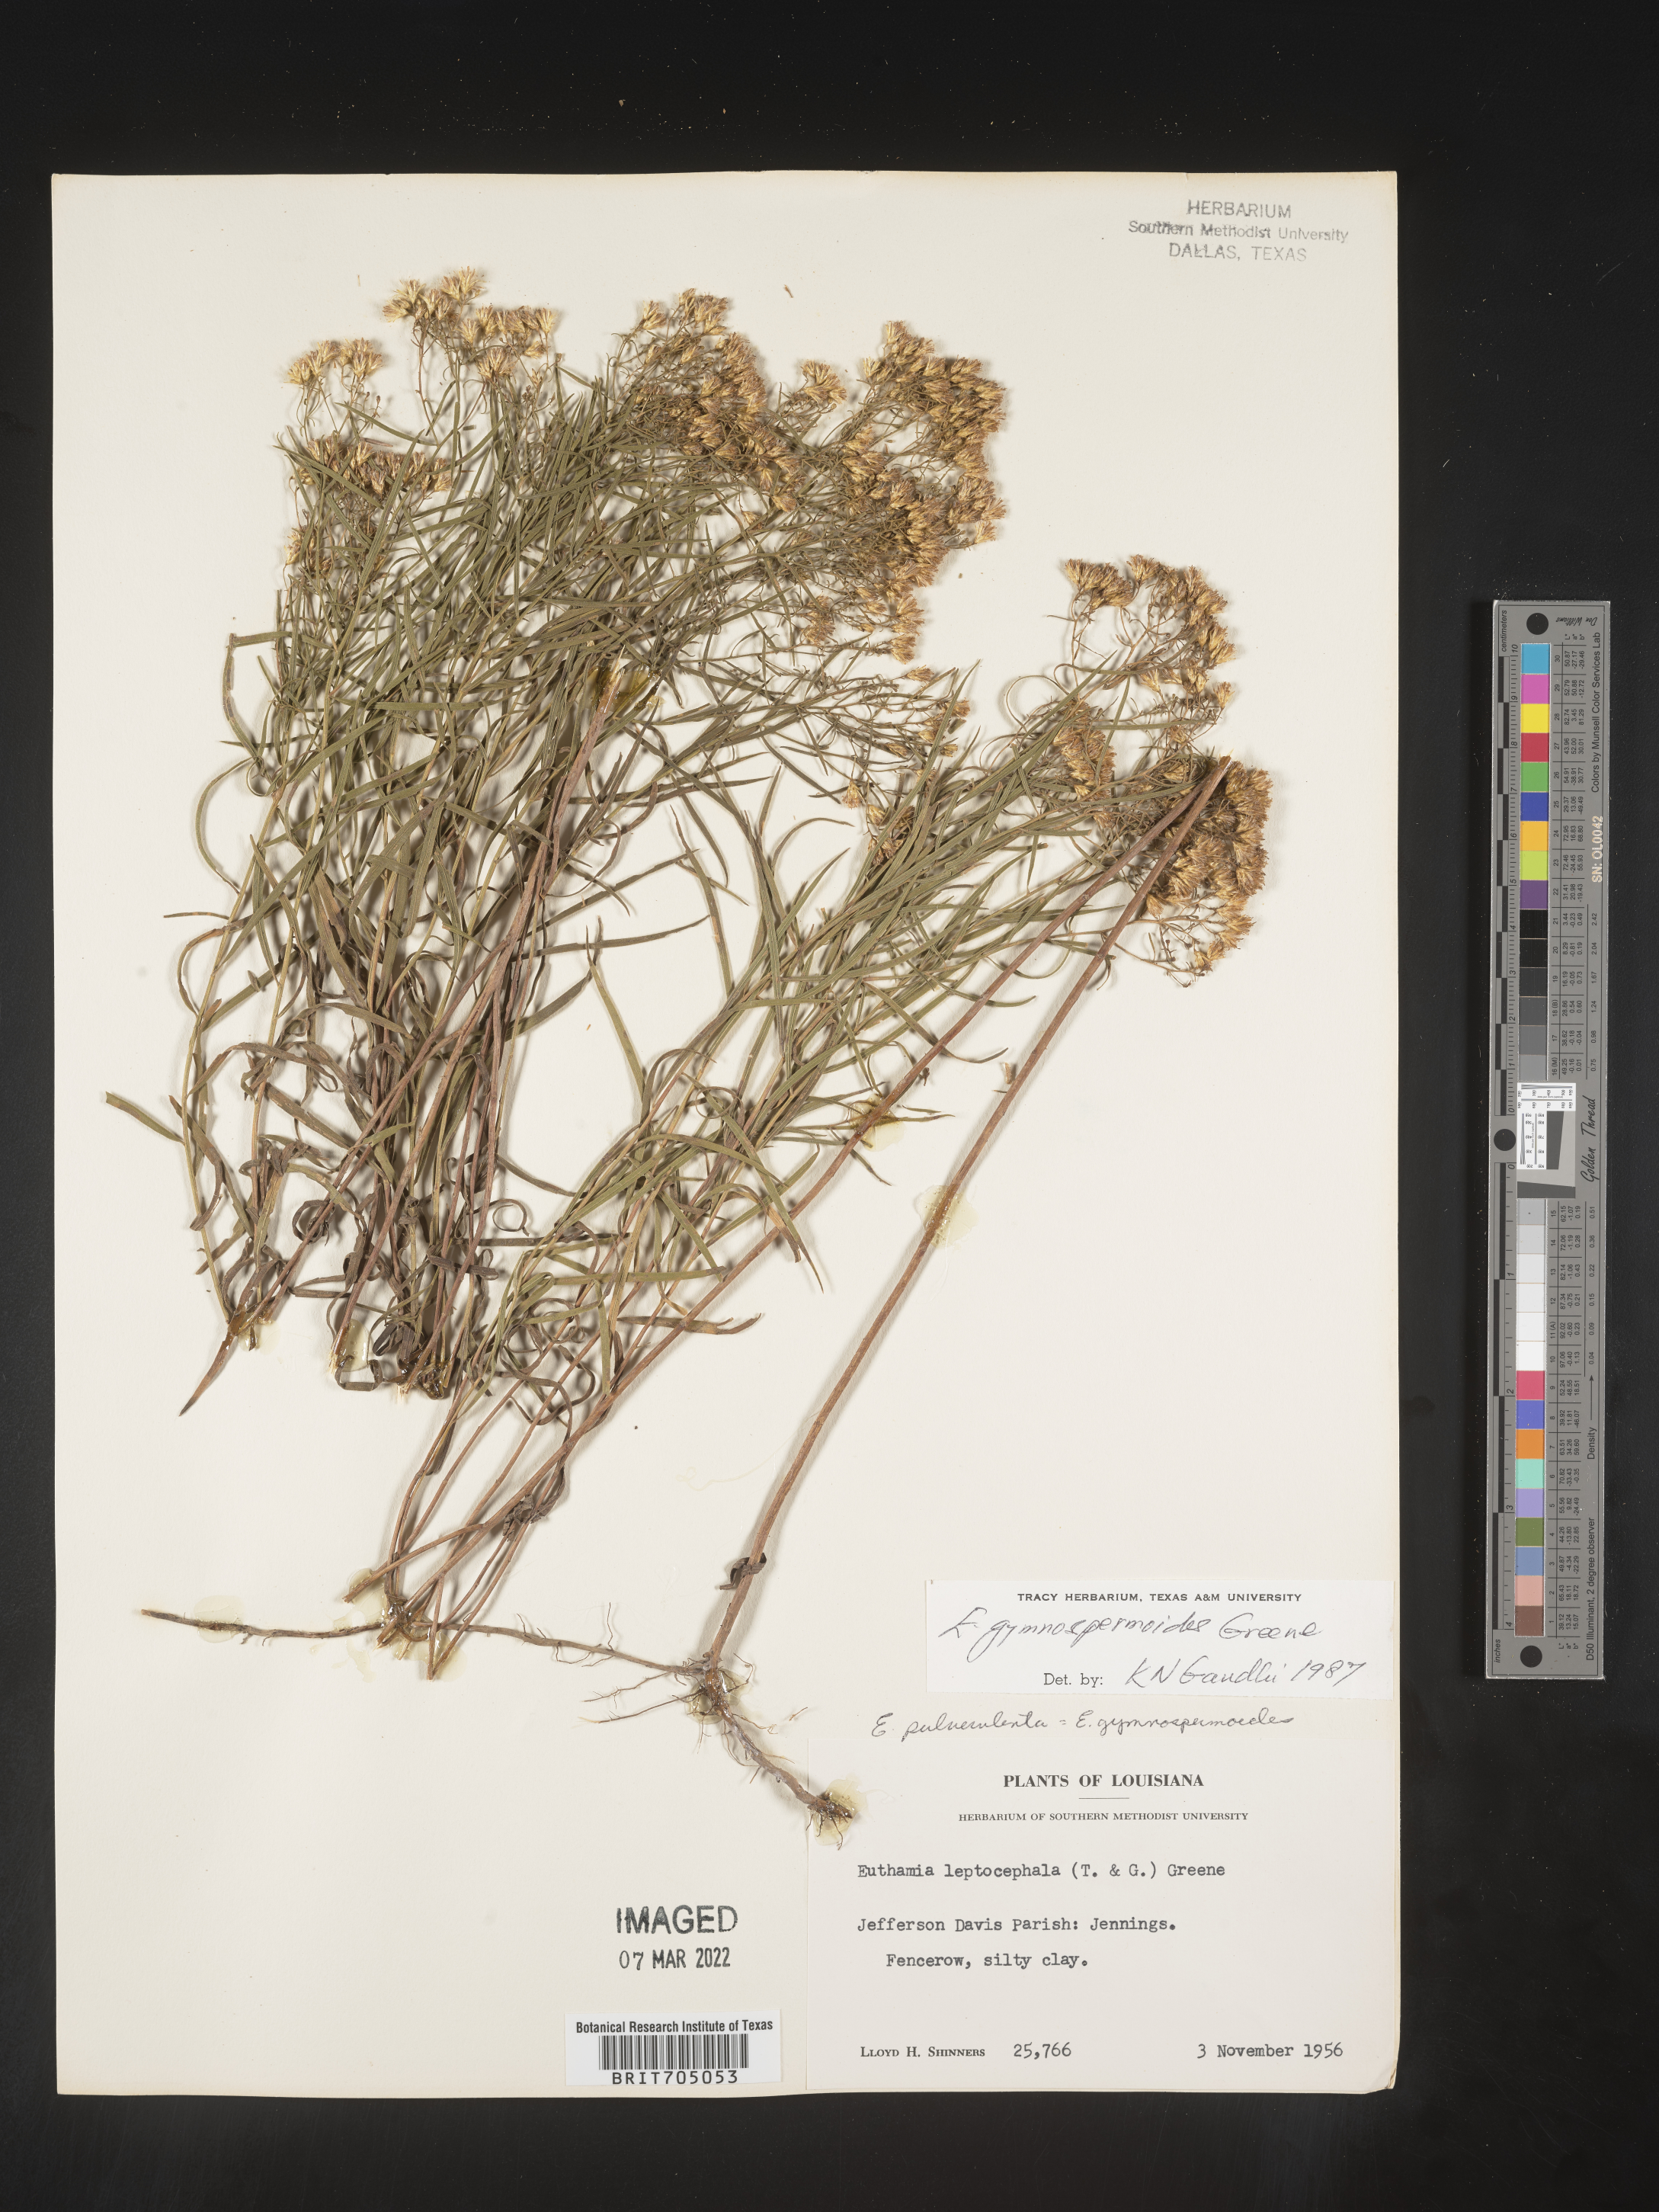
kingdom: Plantae
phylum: Tracheophyta
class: Magnoliopsida
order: Asterales
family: Asteraceae
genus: Euthamia
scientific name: Euthamia gymnospermoides
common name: Great plains goldentop
